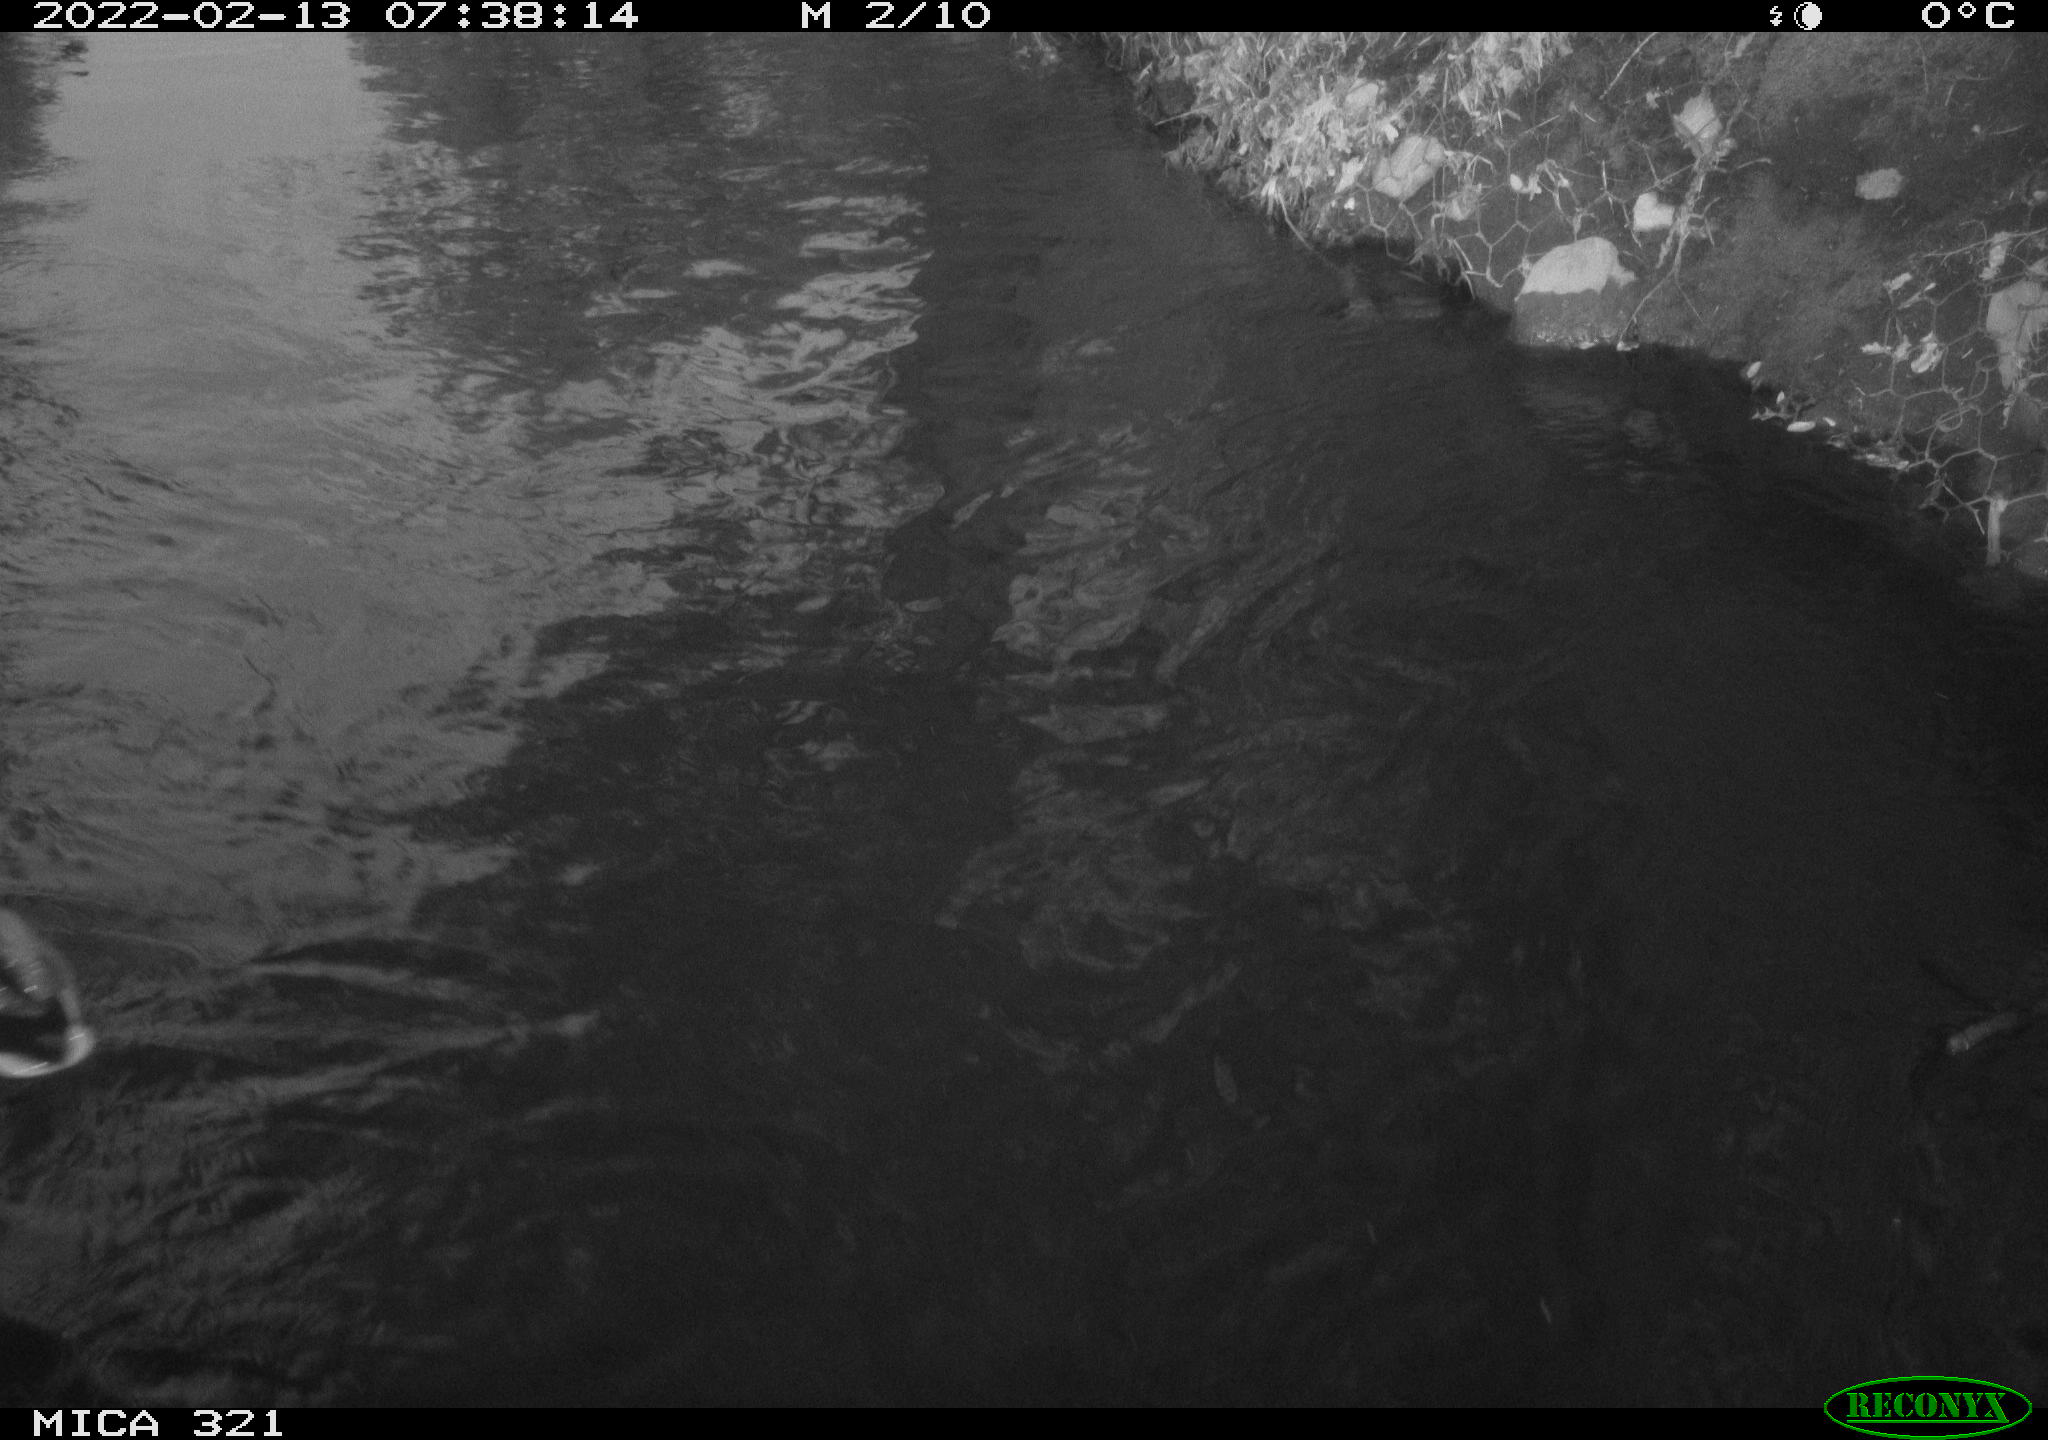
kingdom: Animalia
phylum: Chordata
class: Aves
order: Anseriformes
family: Anatidae
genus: Anas
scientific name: Anas platyrhynchos
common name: Mallard
